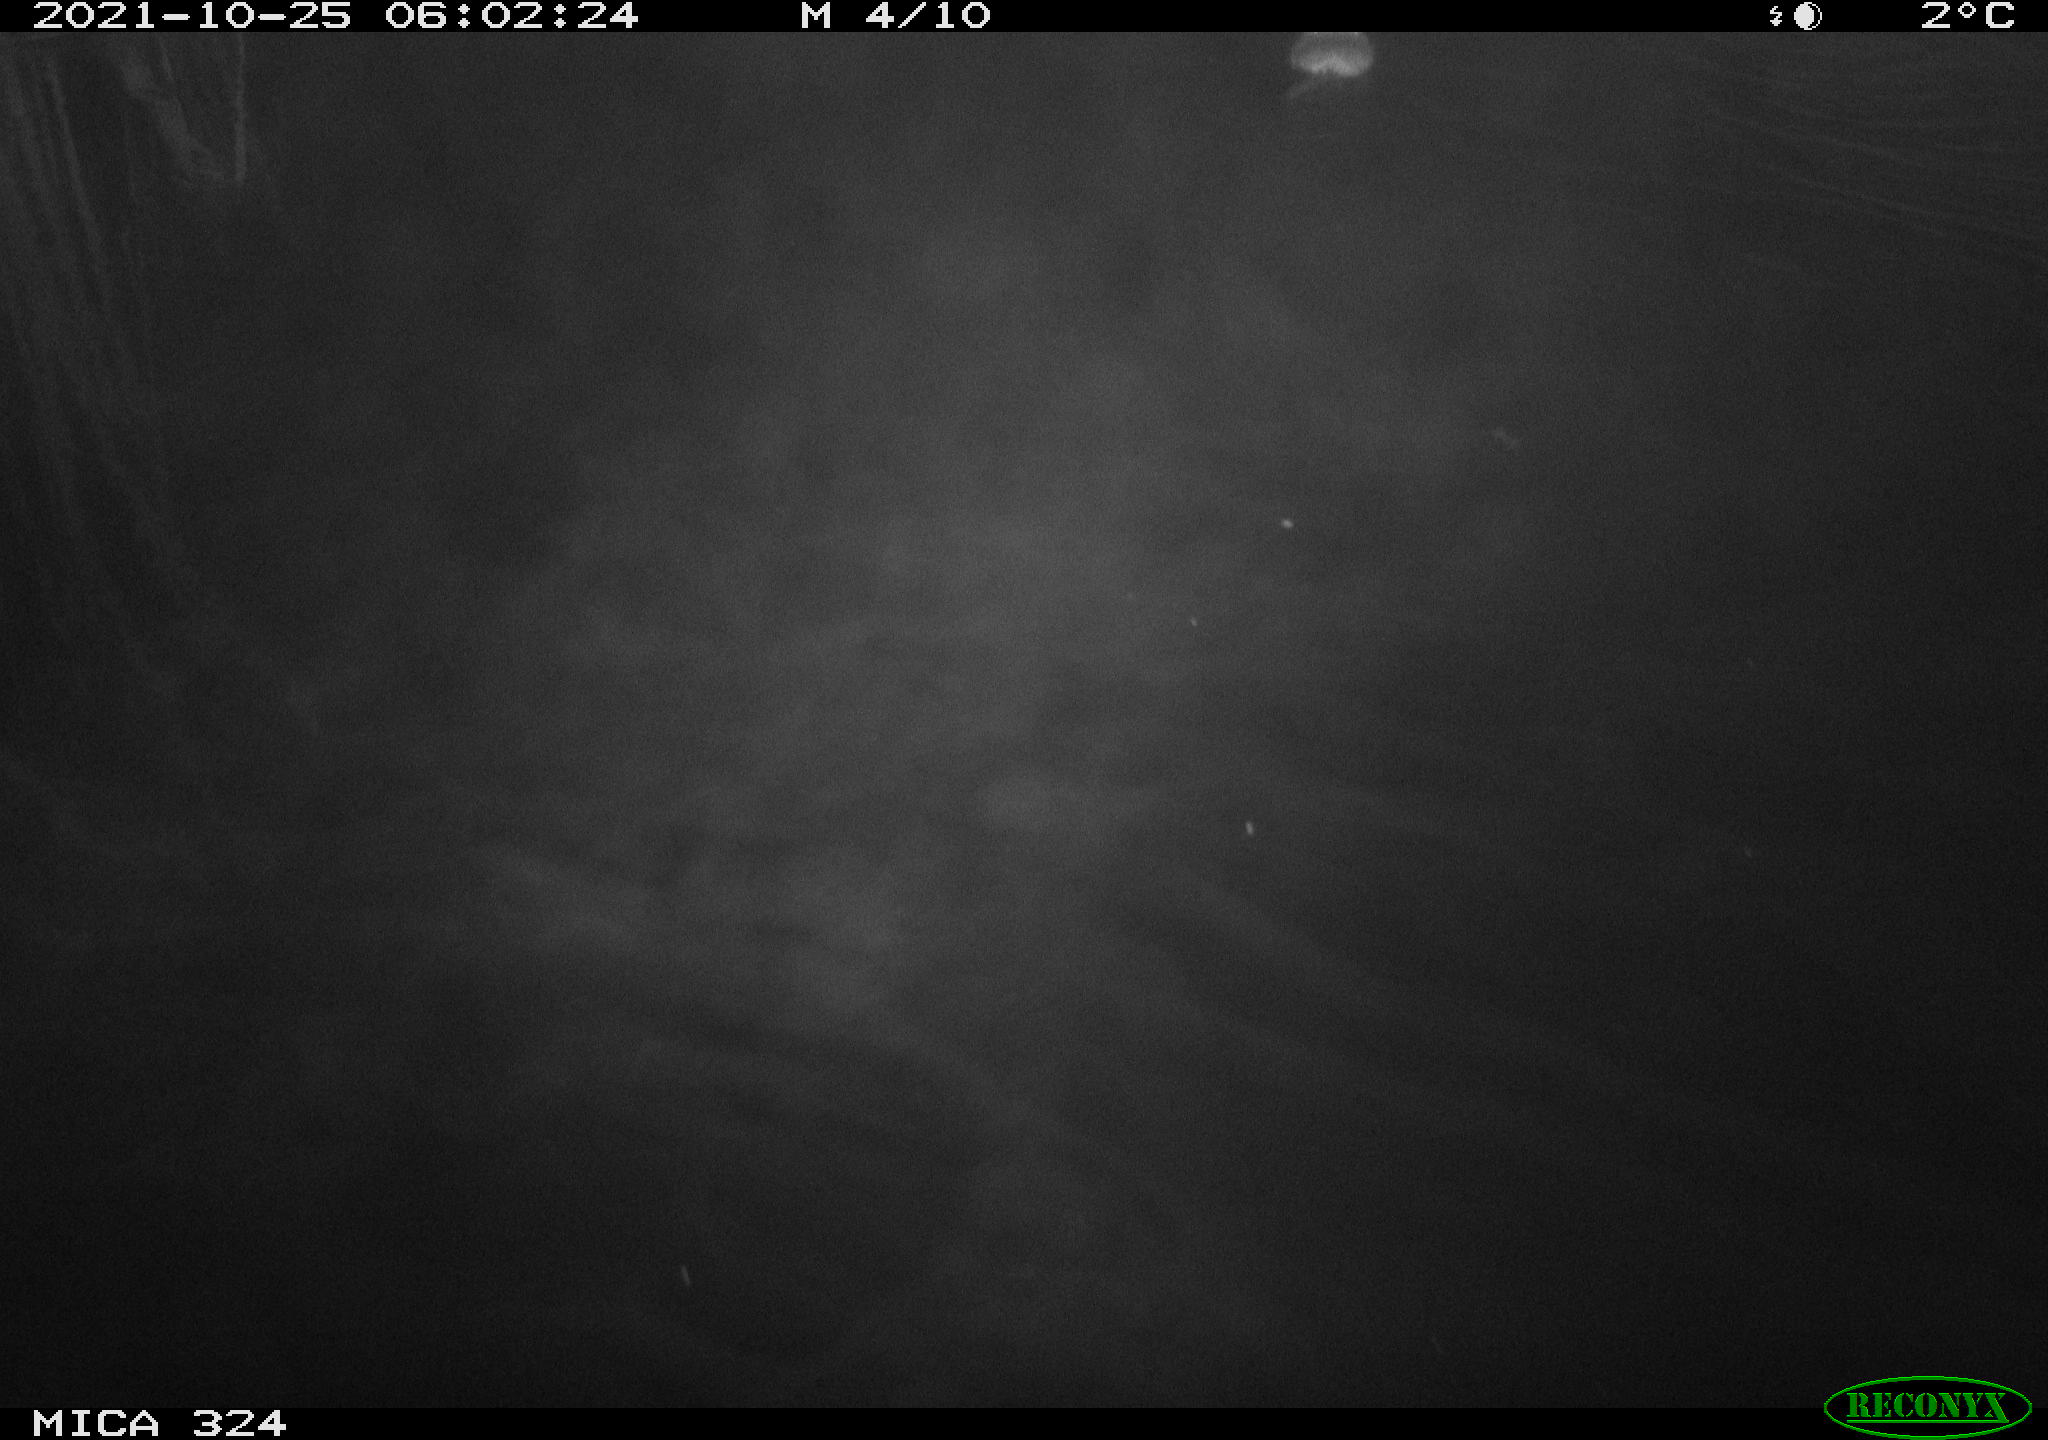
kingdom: Animalia
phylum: Chordata
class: Mammalia
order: Rodentia
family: Cricetidae
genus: Ondatra
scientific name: Ondatra zibethicus
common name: Muskrat
